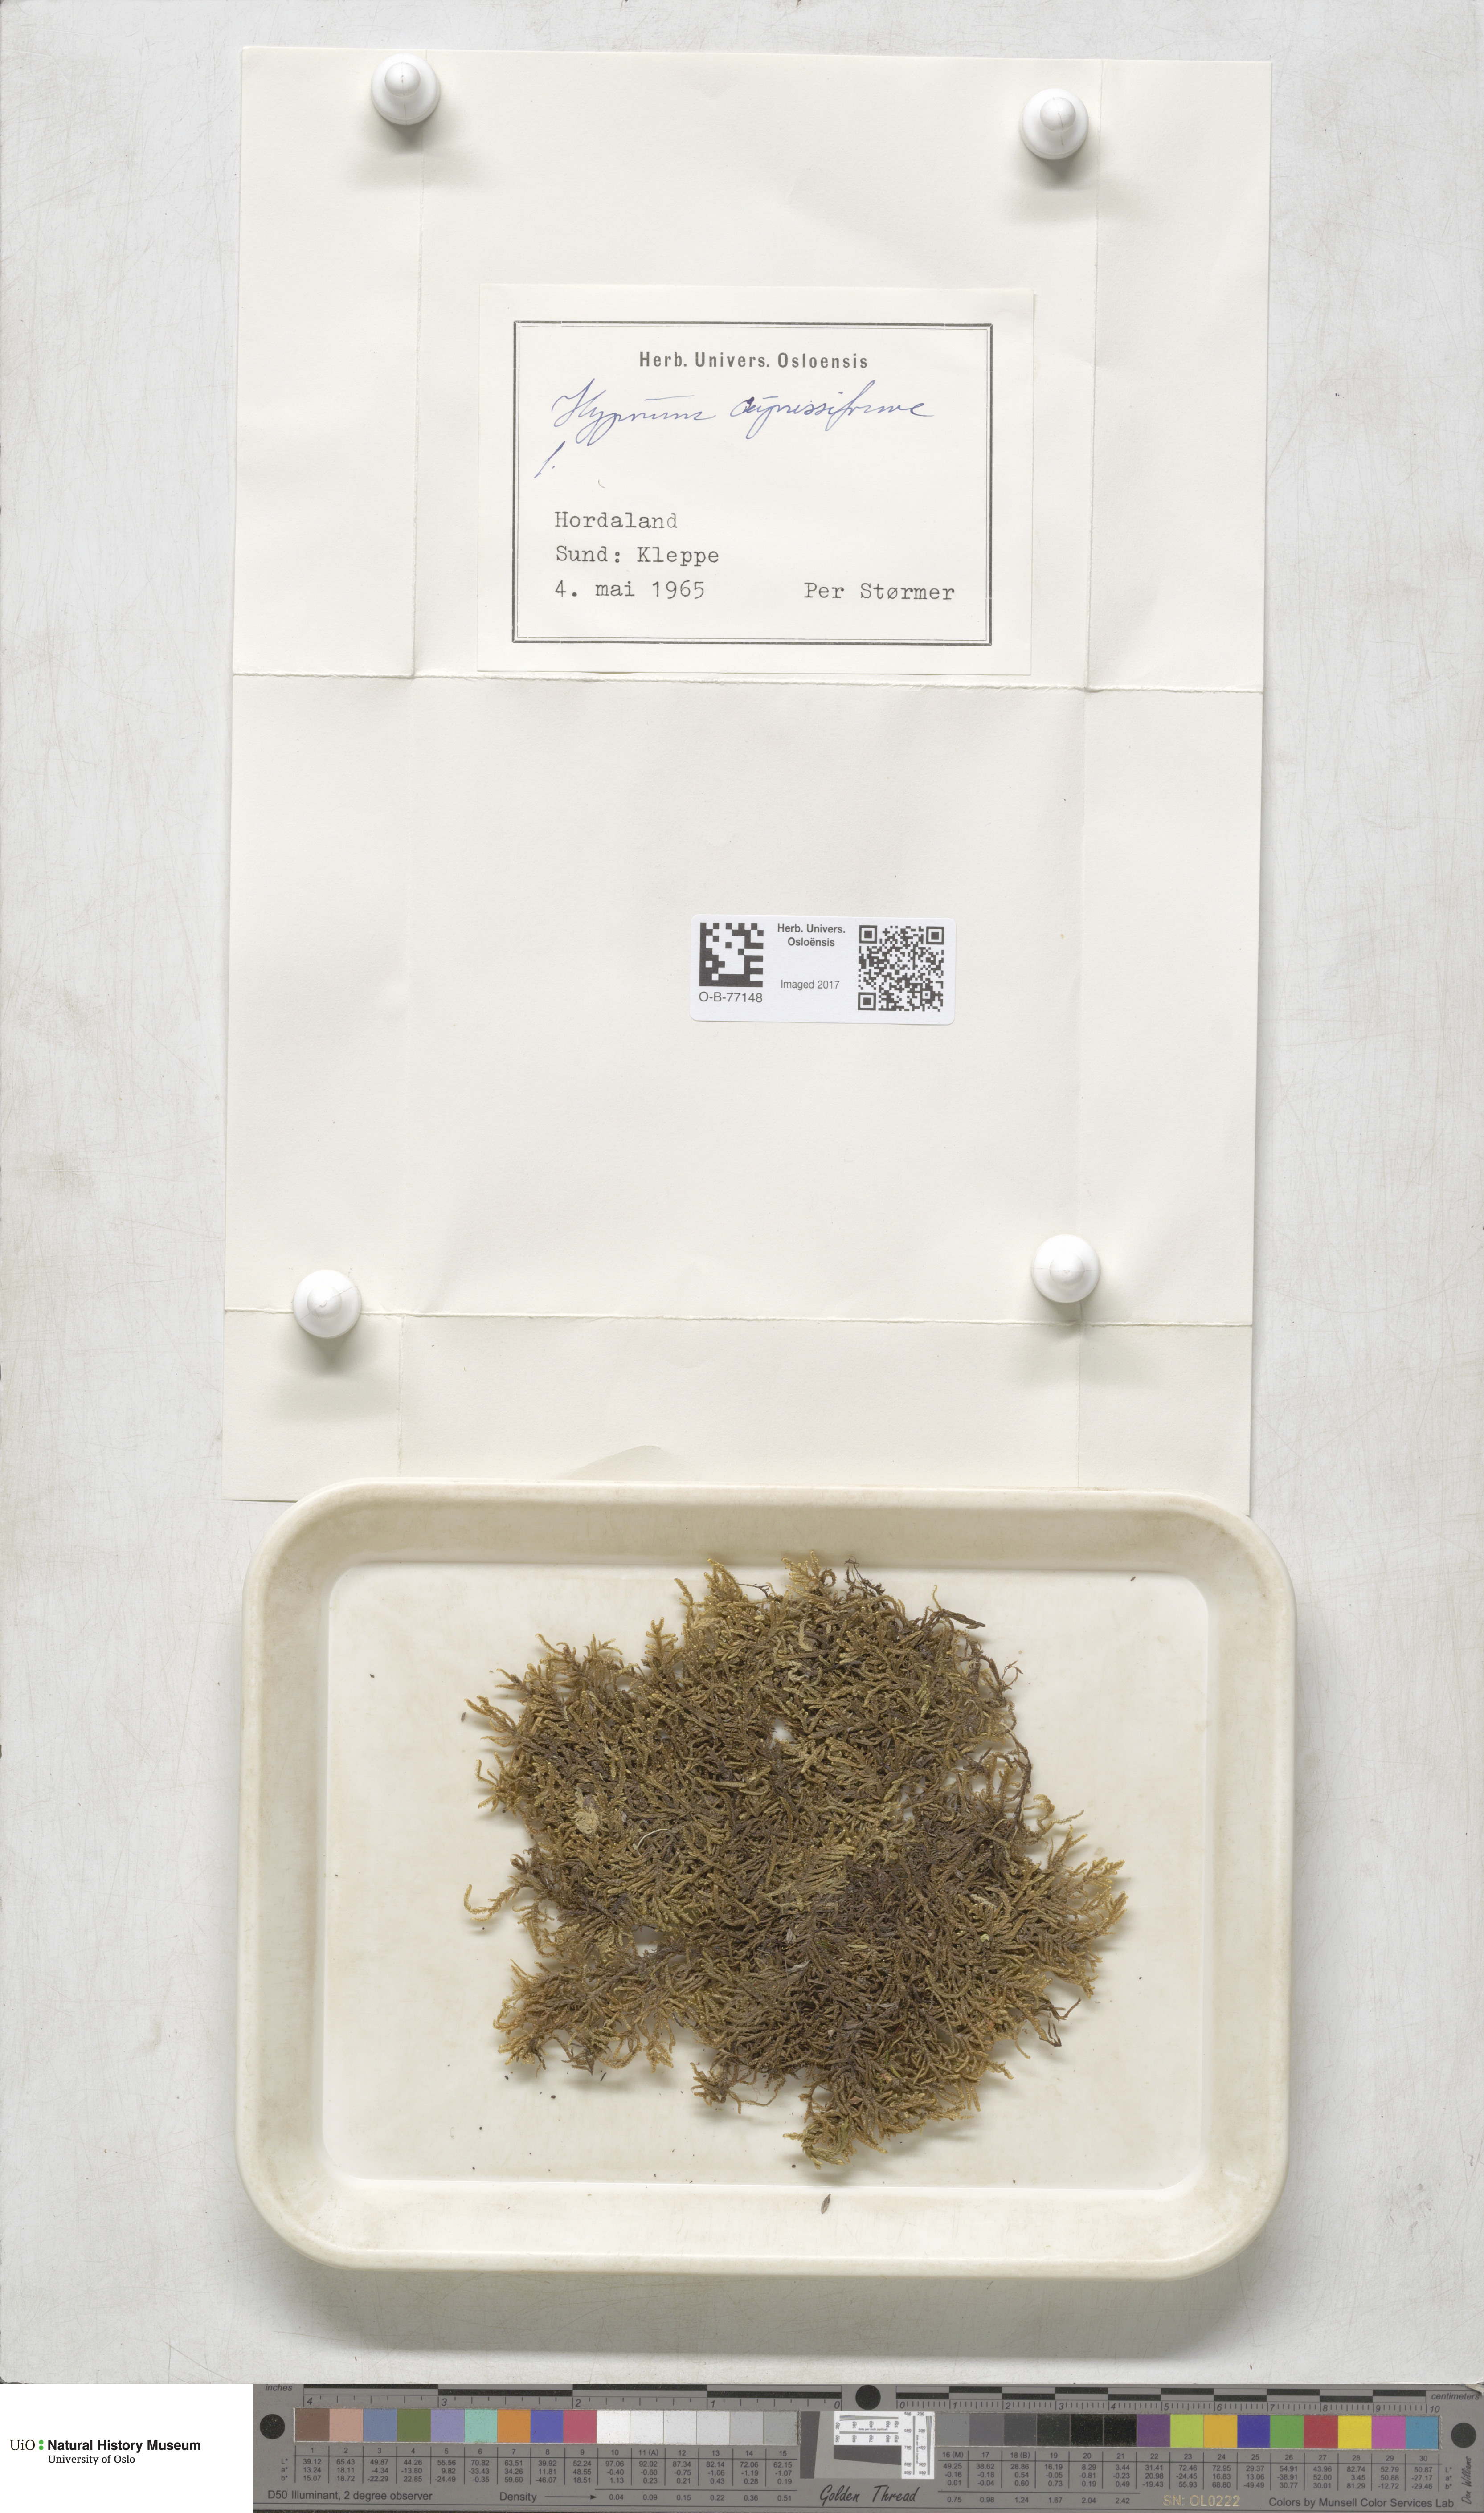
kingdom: Plantae
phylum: Bryophyta
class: Bryopsida
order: Hypnales
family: Hypnaceae
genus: Hypnum
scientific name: Hypnum cupressiforme
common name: Cypress-leaved plait-moss
